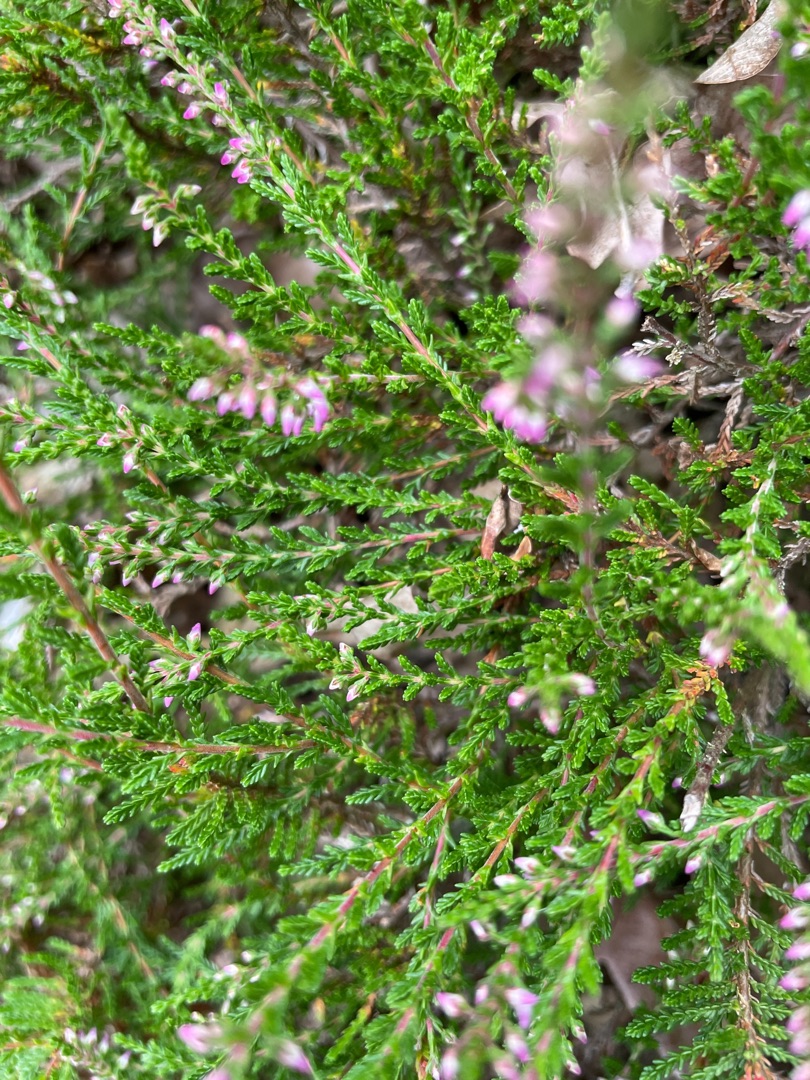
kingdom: Plantae
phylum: Tracheophyta
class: Magnoliopsida
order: Ericales
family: Ericaceae
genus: Calluna
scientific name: Calluna vulgaris
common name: Hedelyng
